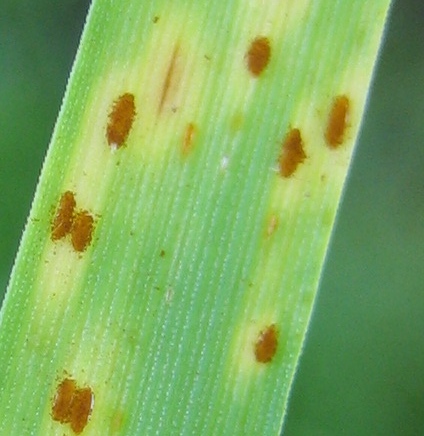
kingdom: Fungi
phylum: Basidiomycota
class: Pucciniomycetes
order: Pucciniales
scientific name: Pucciniales
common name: rustsvampeordenen
